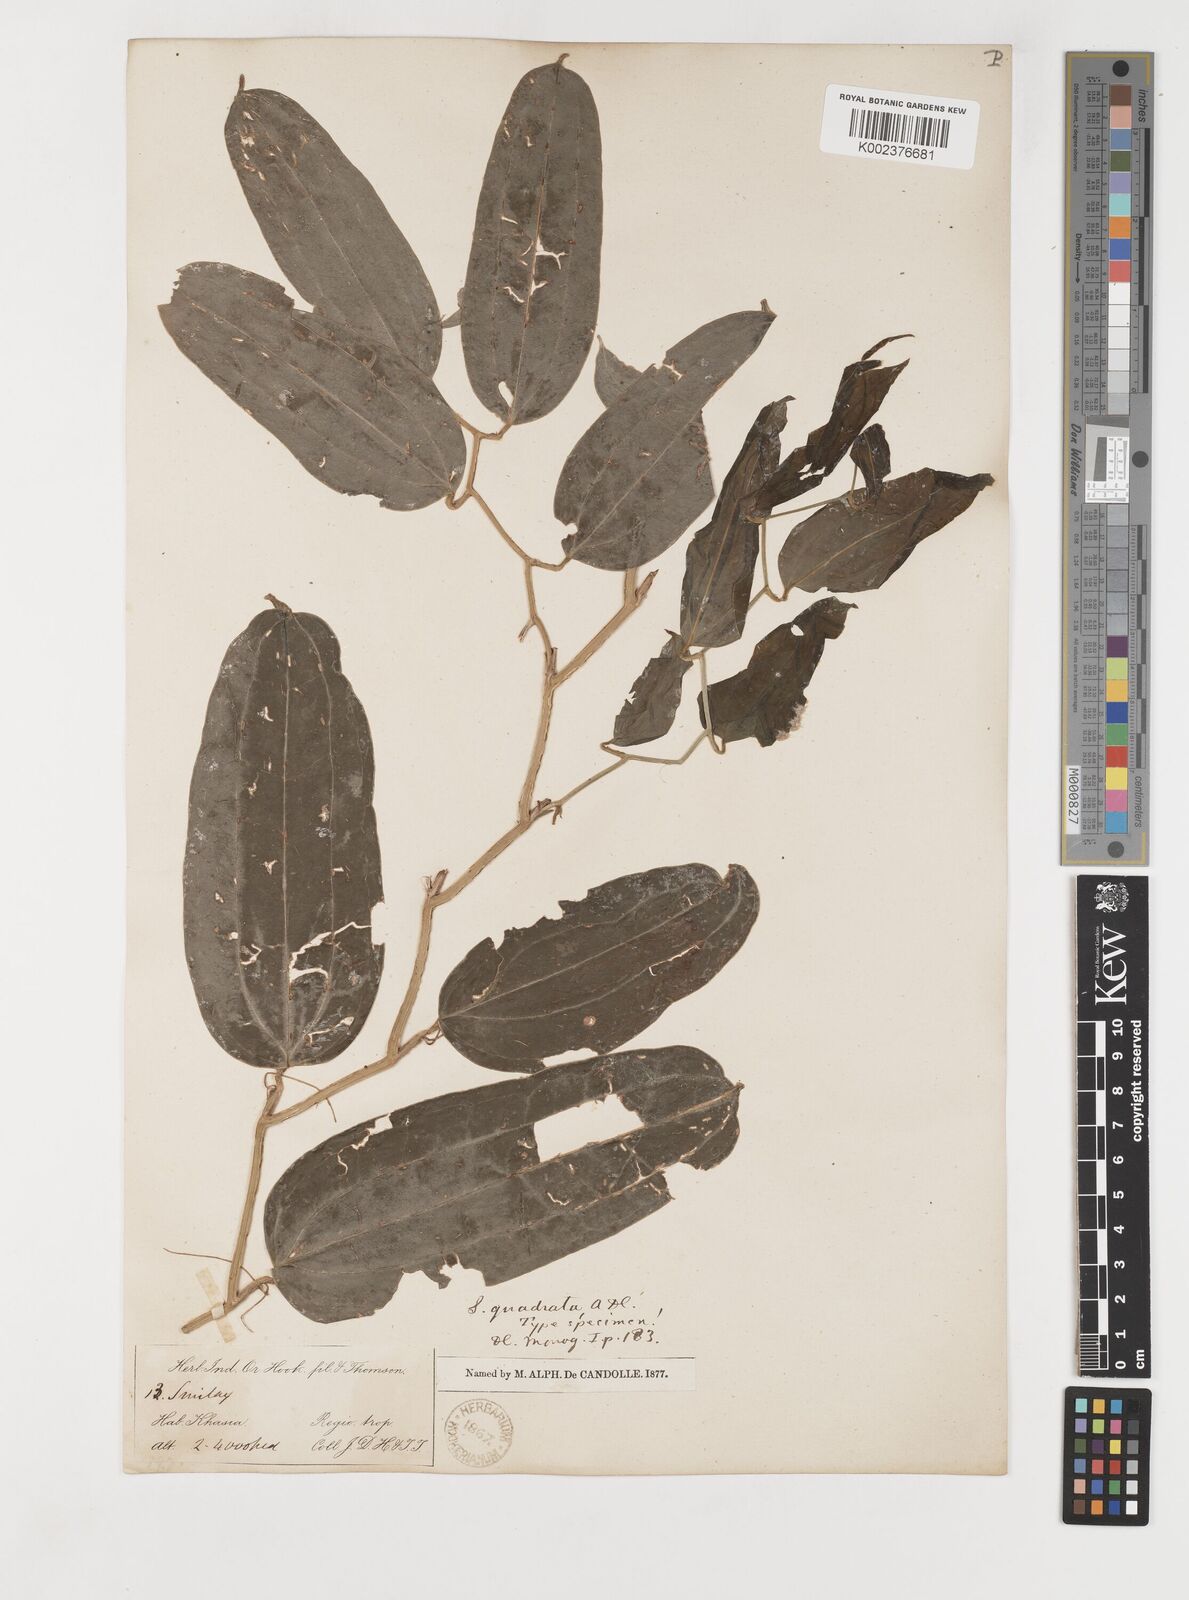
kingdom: Plantae
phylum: Tracheophyta
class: Liliopsida
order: Liliales
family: Smilacaceae
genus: Smilax
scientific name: Smilax quadrata
